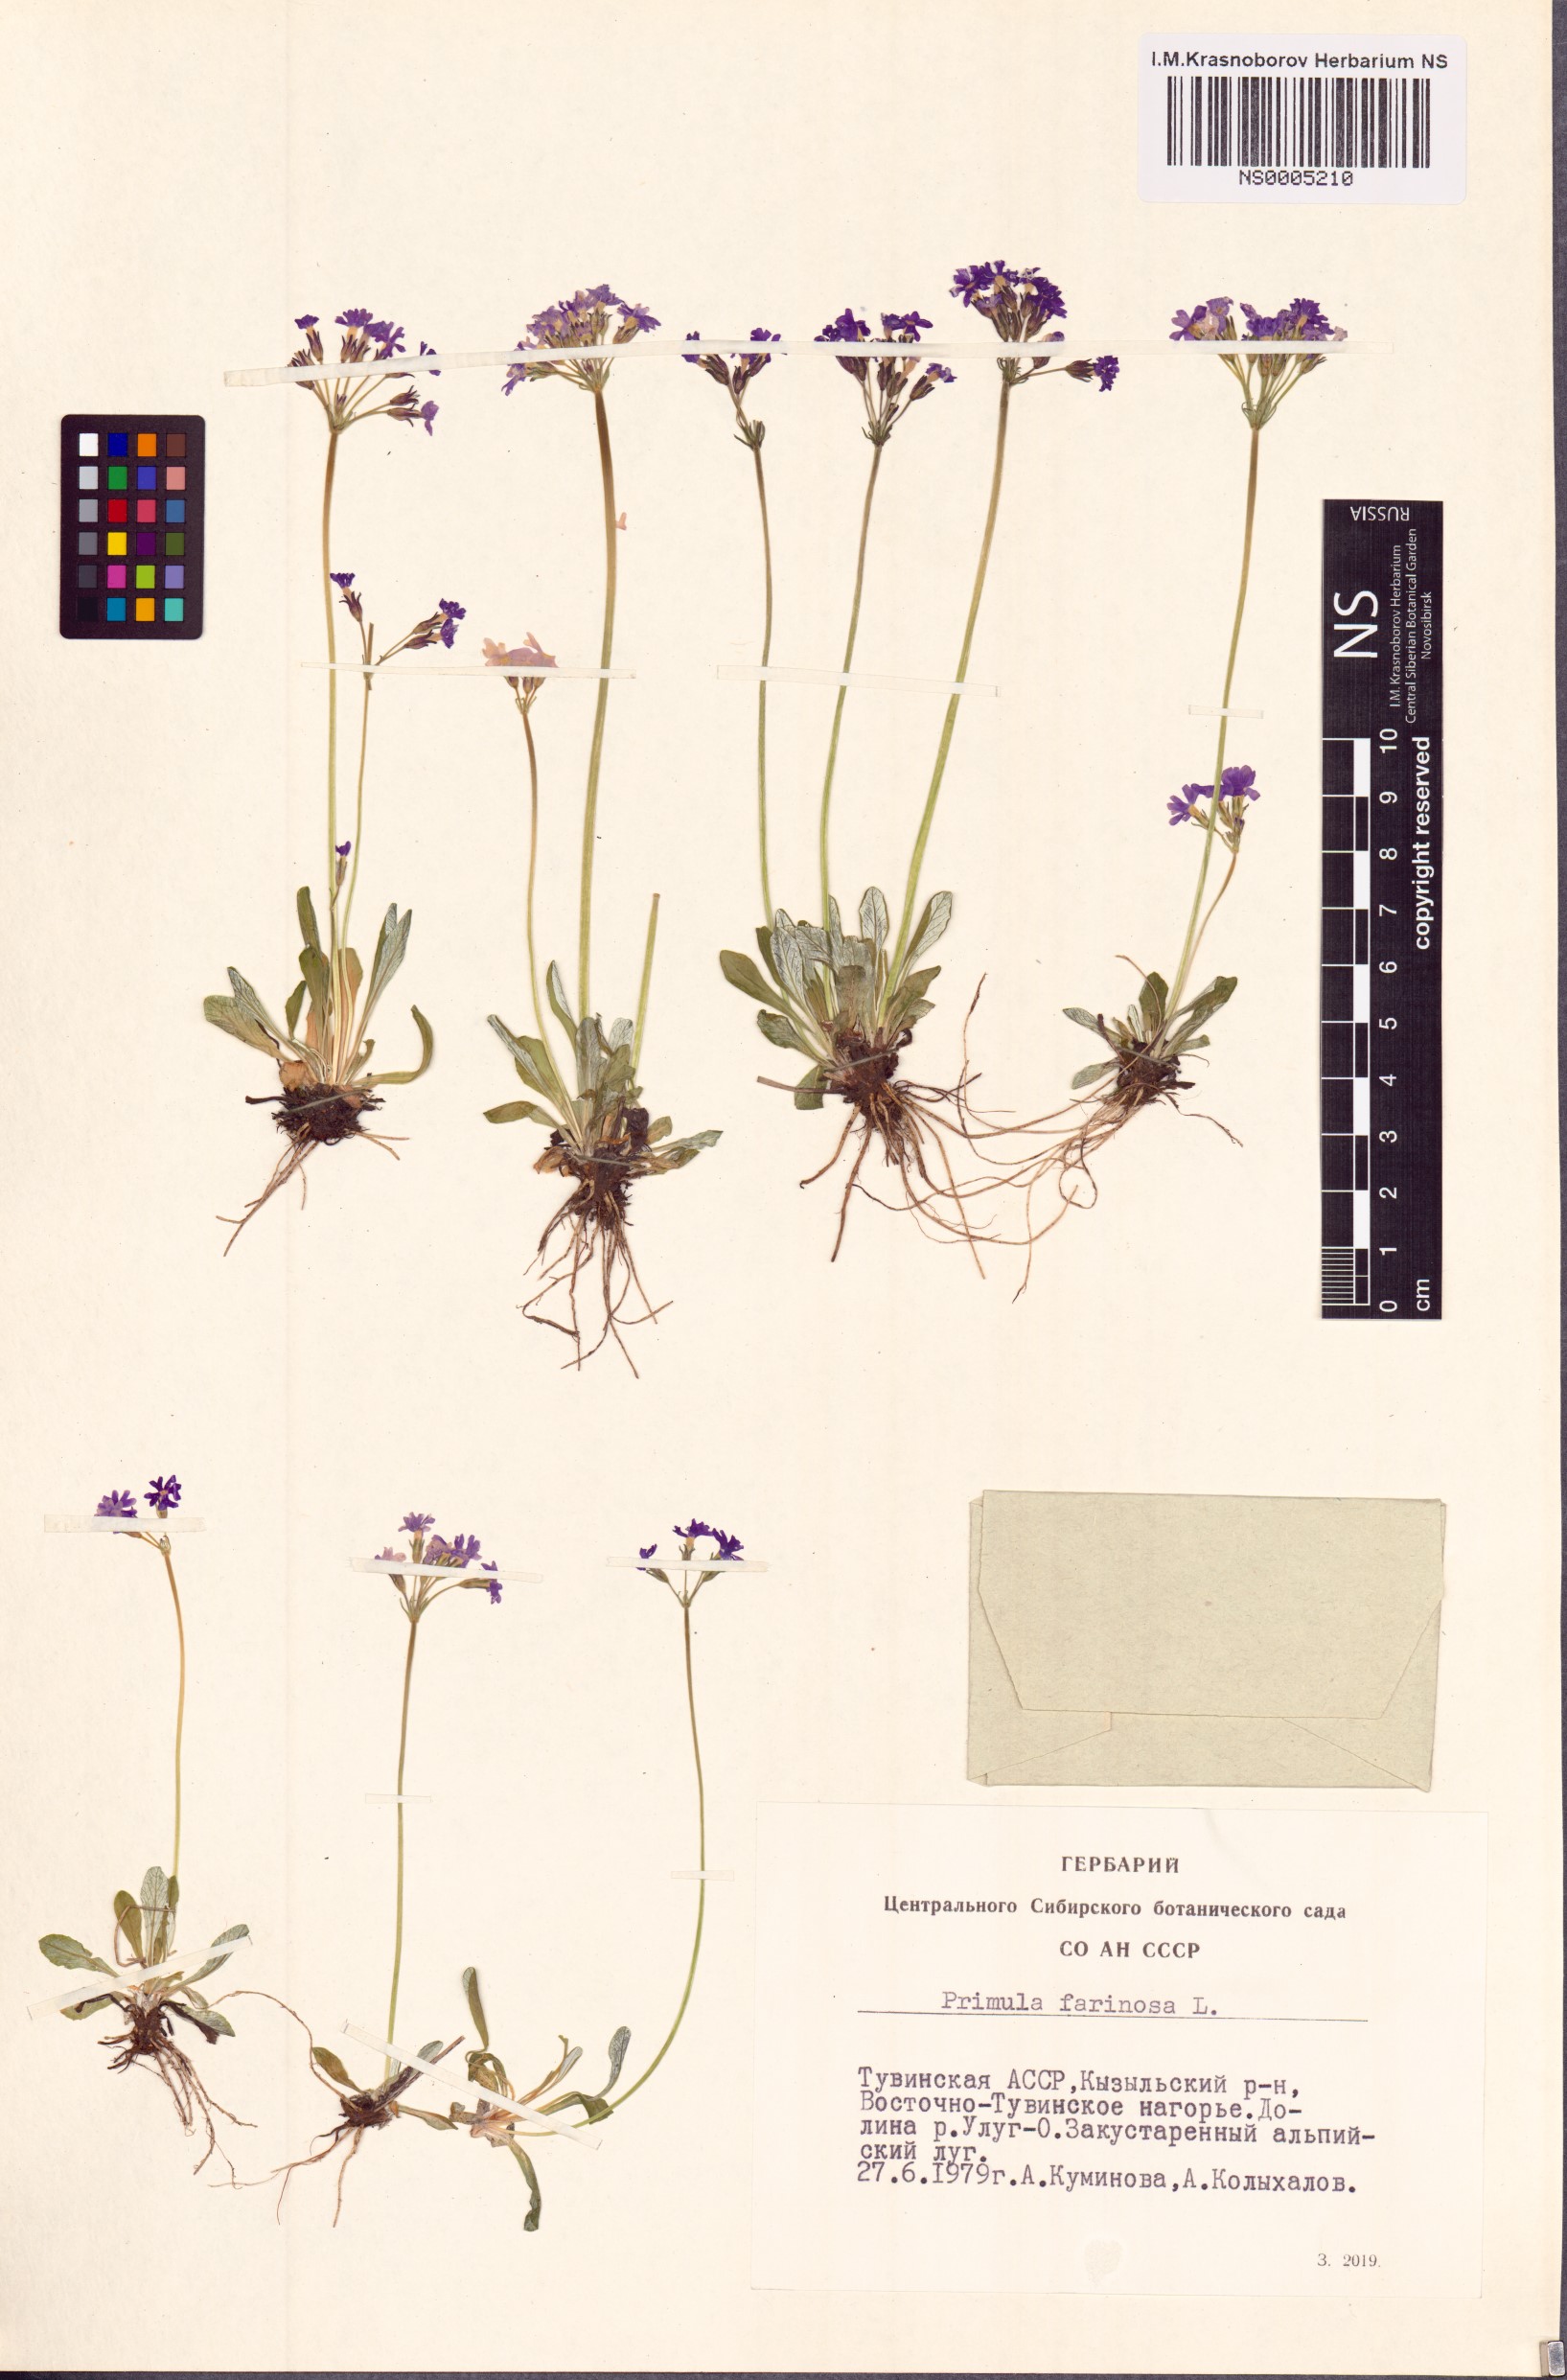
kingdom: Plantae
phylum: Tracheophyta
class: Magnoliopsida
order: Ericales
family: Primulaceae
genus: Primula
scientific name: Primula farinosa
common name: Bird's-eye primrose
